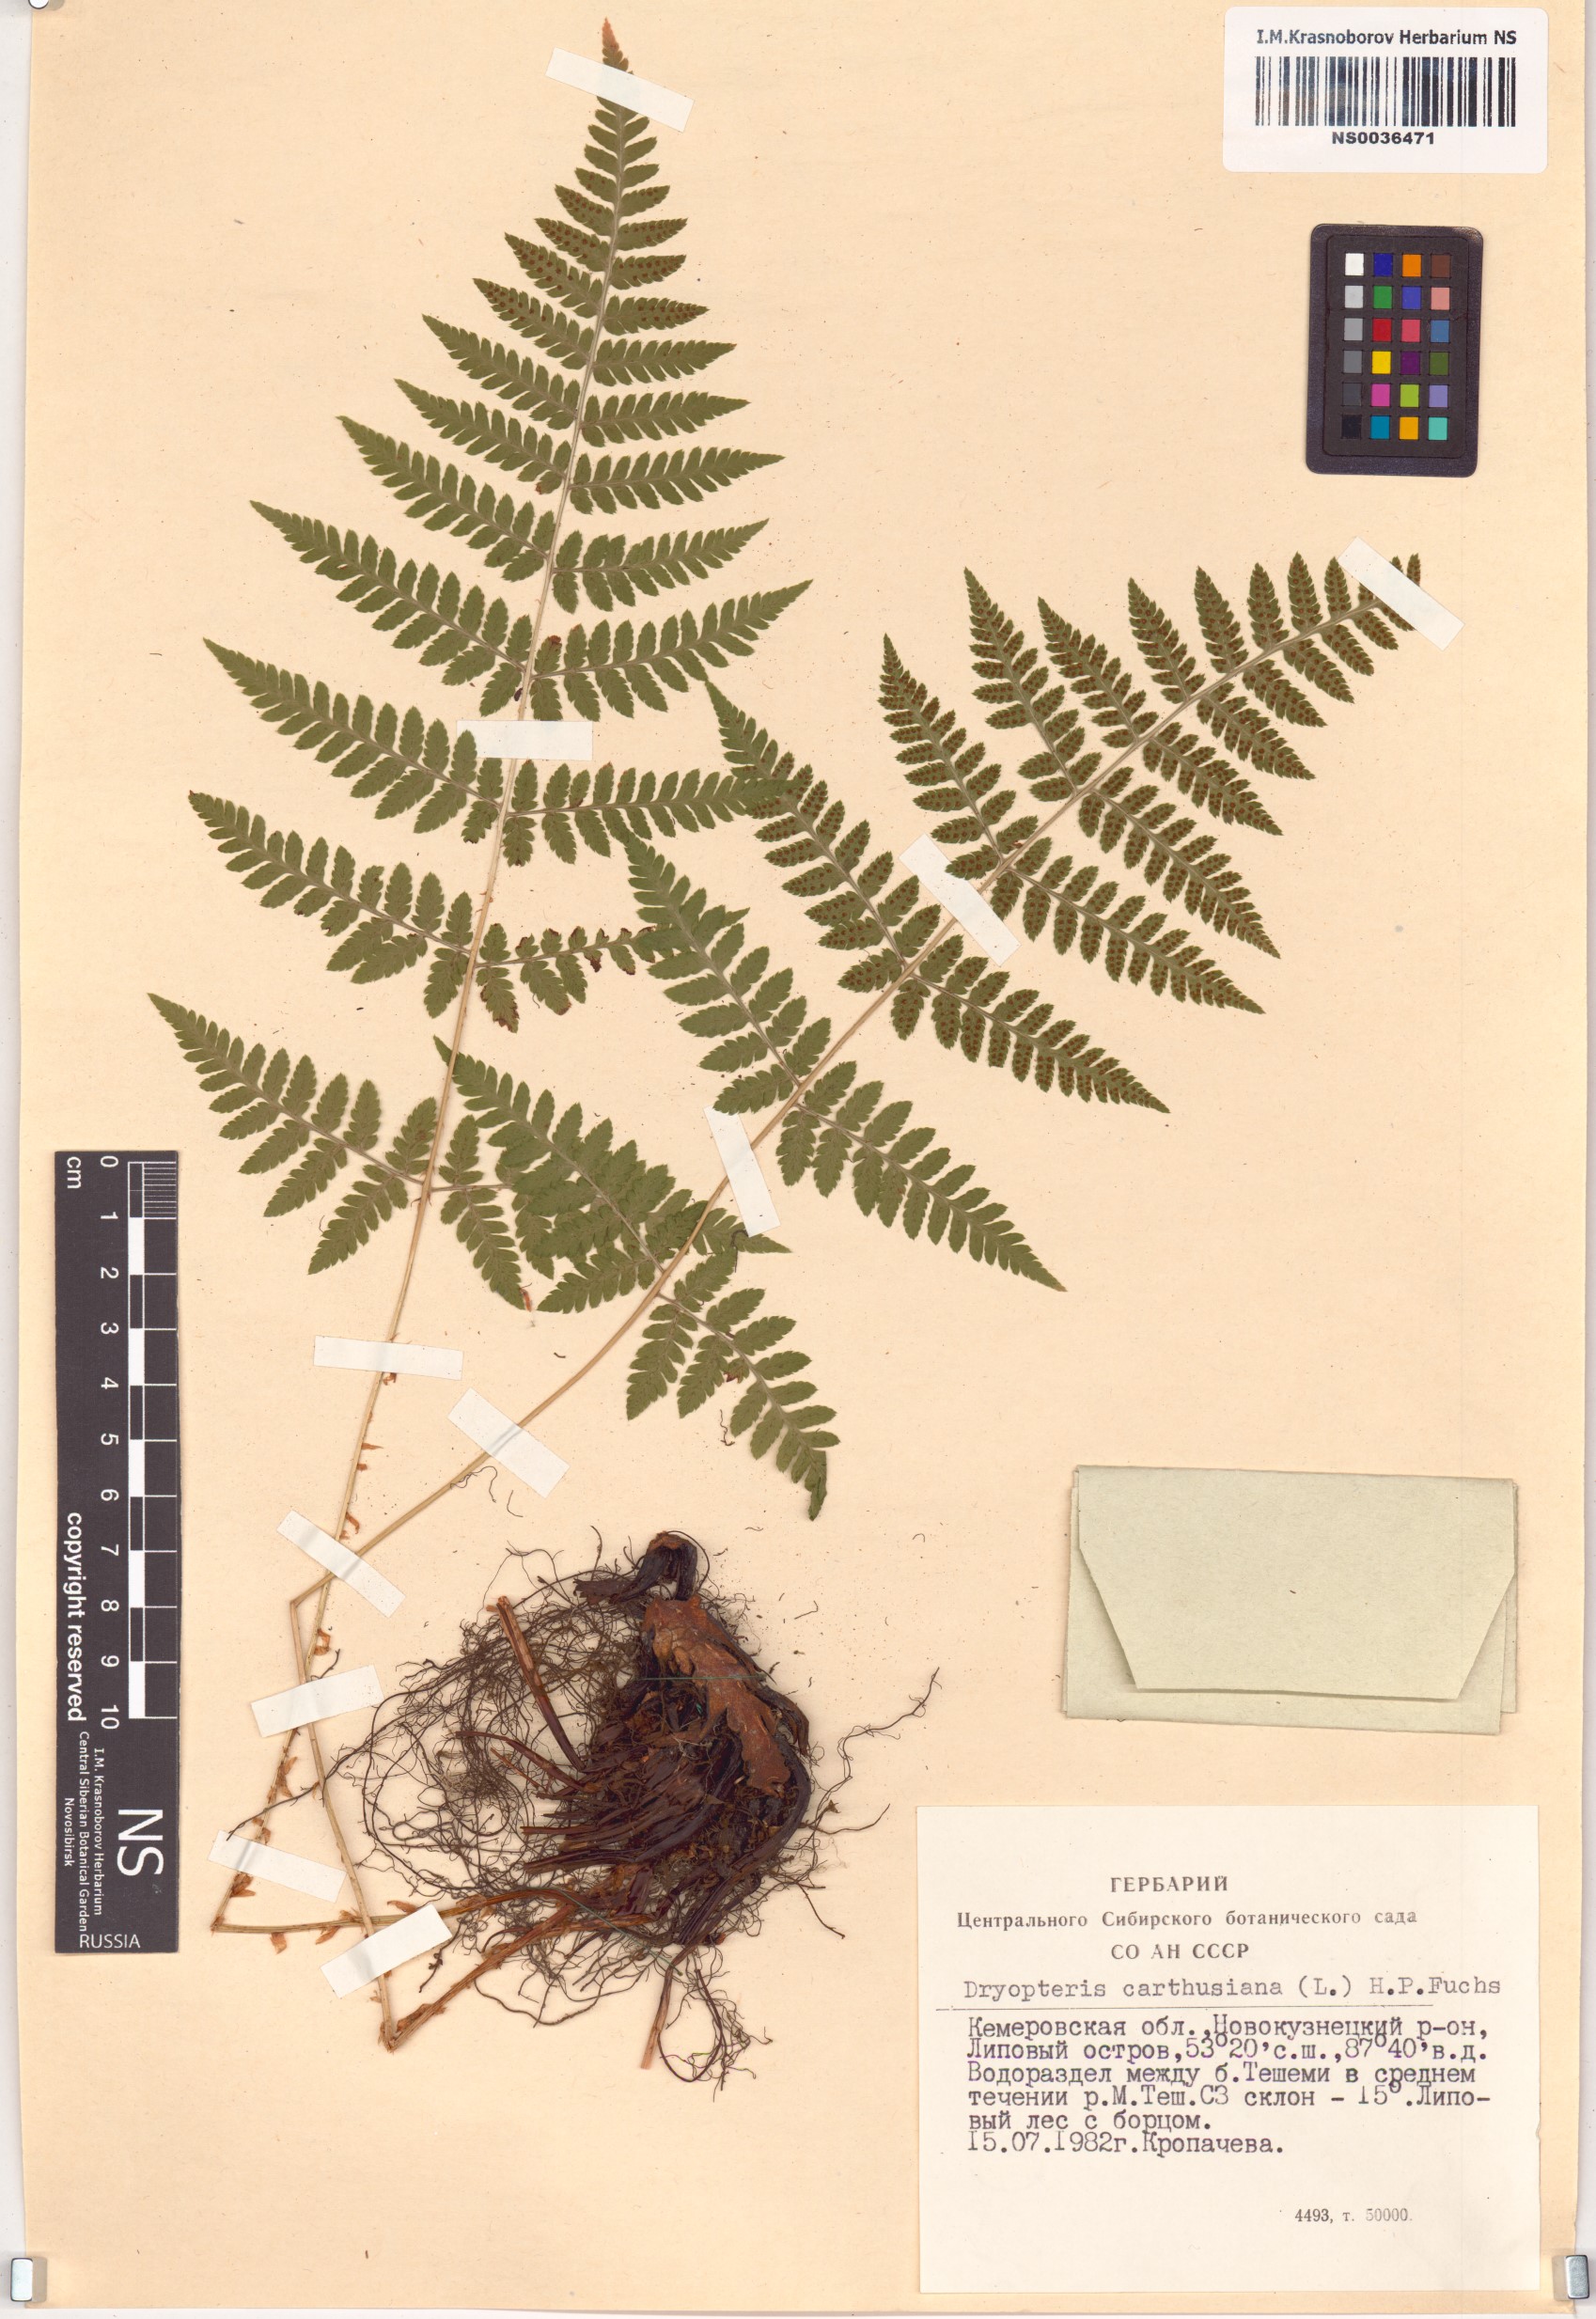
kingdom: Plantae
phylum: Tracheophyta
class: Polypodiopsida
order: Polypodiales
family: Dryopteridaceae
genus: Dryopteris
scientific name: Dryopteris carthusiana
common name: Narrow buckler-fern
